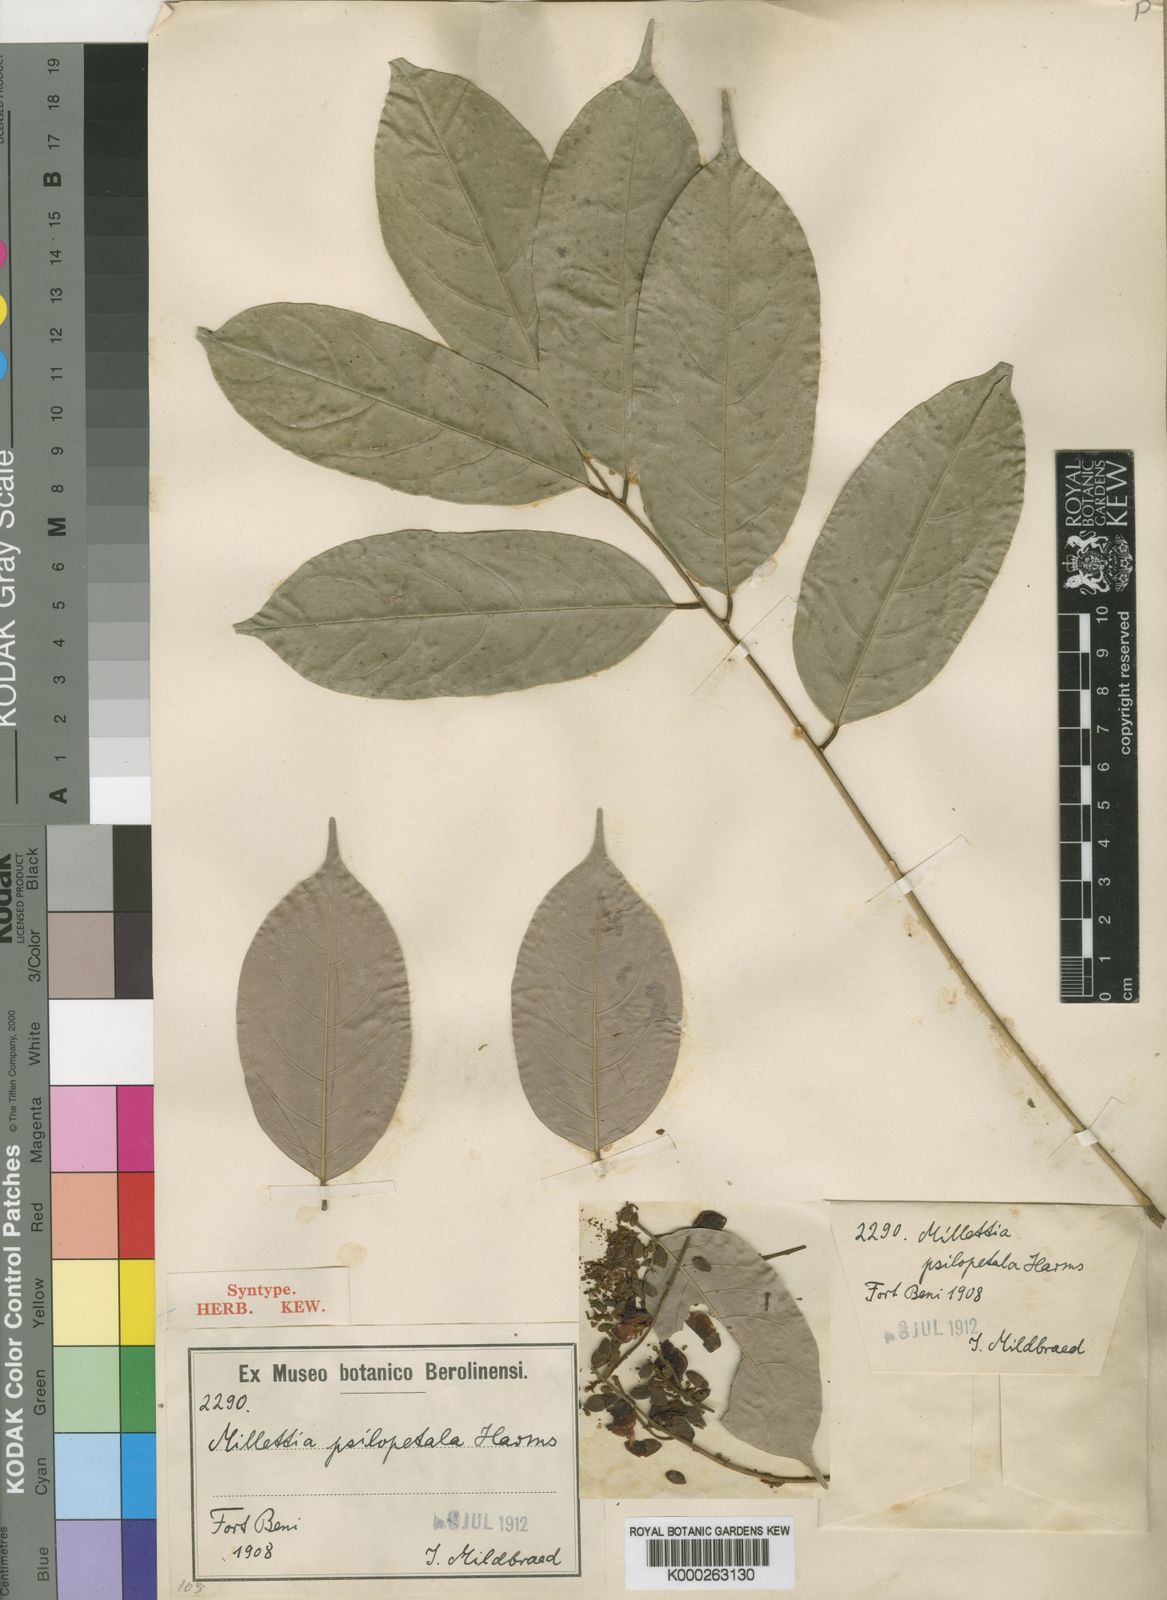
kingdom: Plantae
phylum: Tracheophyta
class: Magnoliopsida
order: Fabales
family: Fabaceae
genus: Millettia
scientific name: Millettia psilopetala
